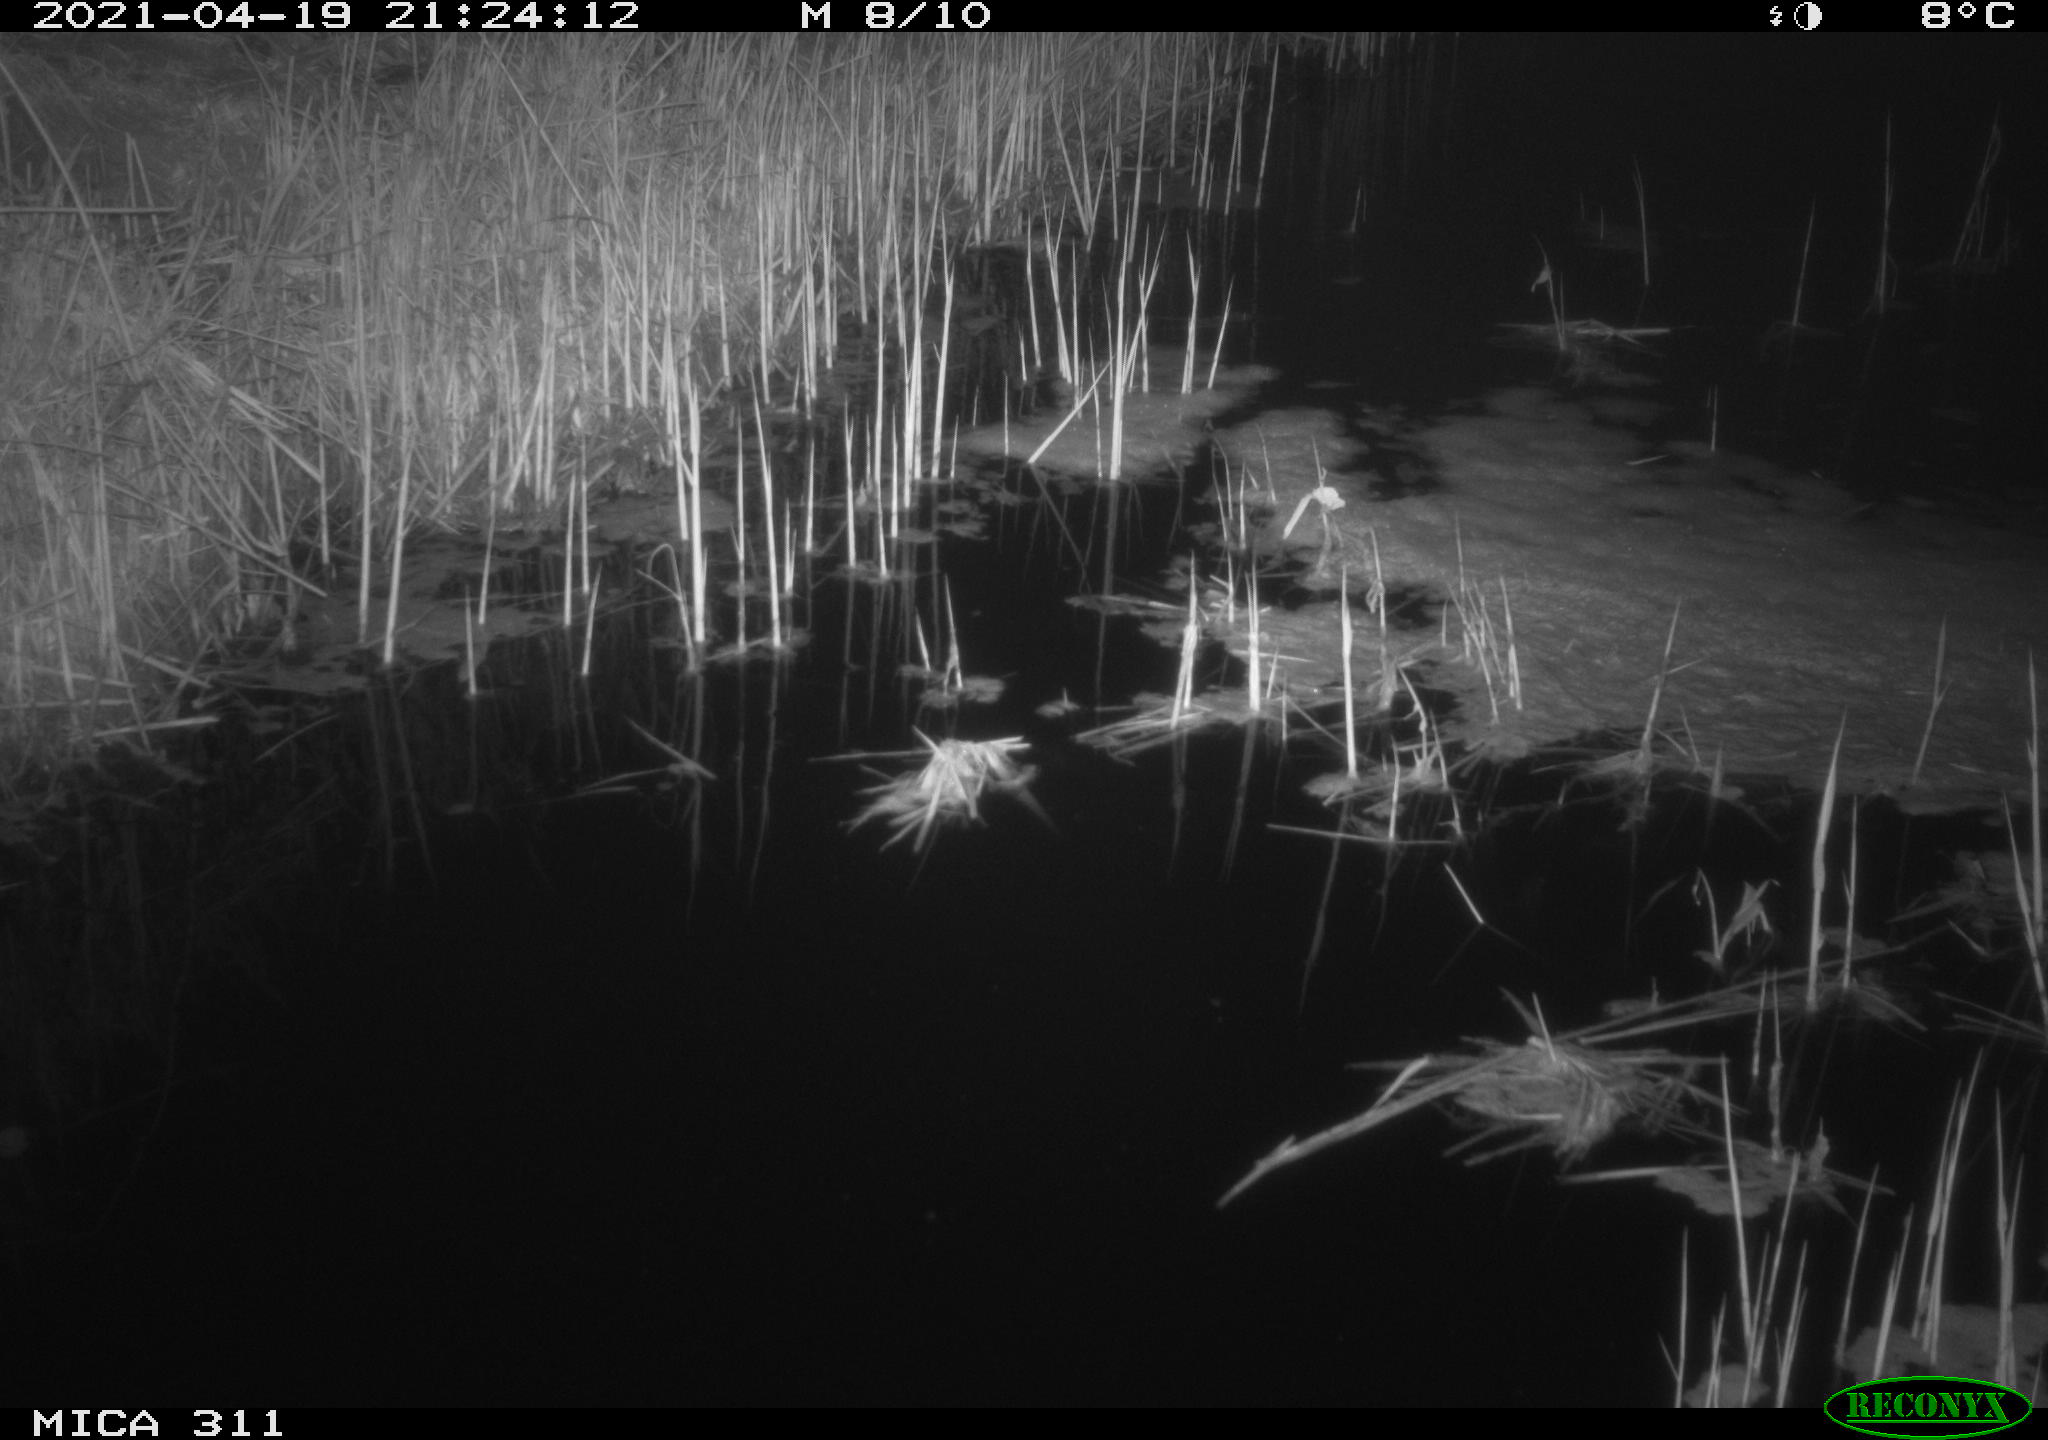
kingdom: Animalia
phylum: Chordata
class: Aves
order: Gruiformes
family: Rallidae
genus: Gallinula
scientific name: Gallinula chloropus
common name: Common moorhen
